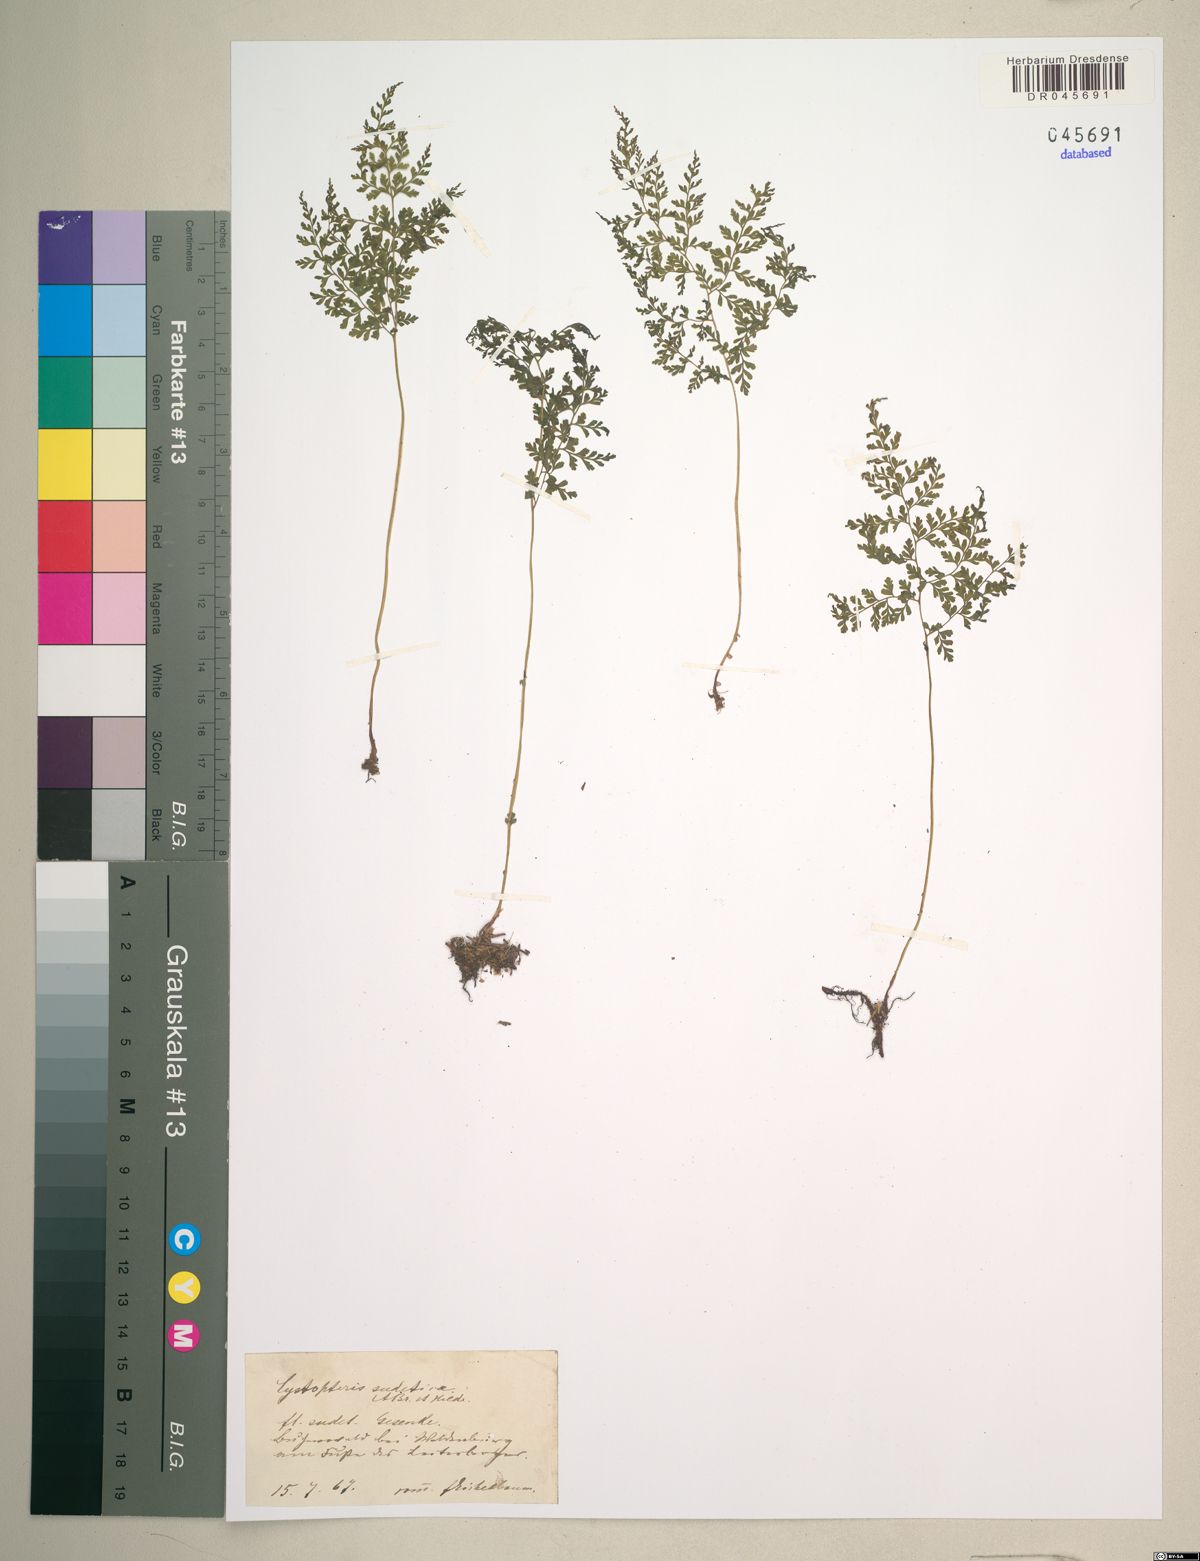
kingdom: Plantae
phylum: Tracheophyta
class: Polypodiopsida
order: Polypodiales
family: Cystopteridaceae
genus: Cystopteris
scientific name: Cystopteris sudetica
